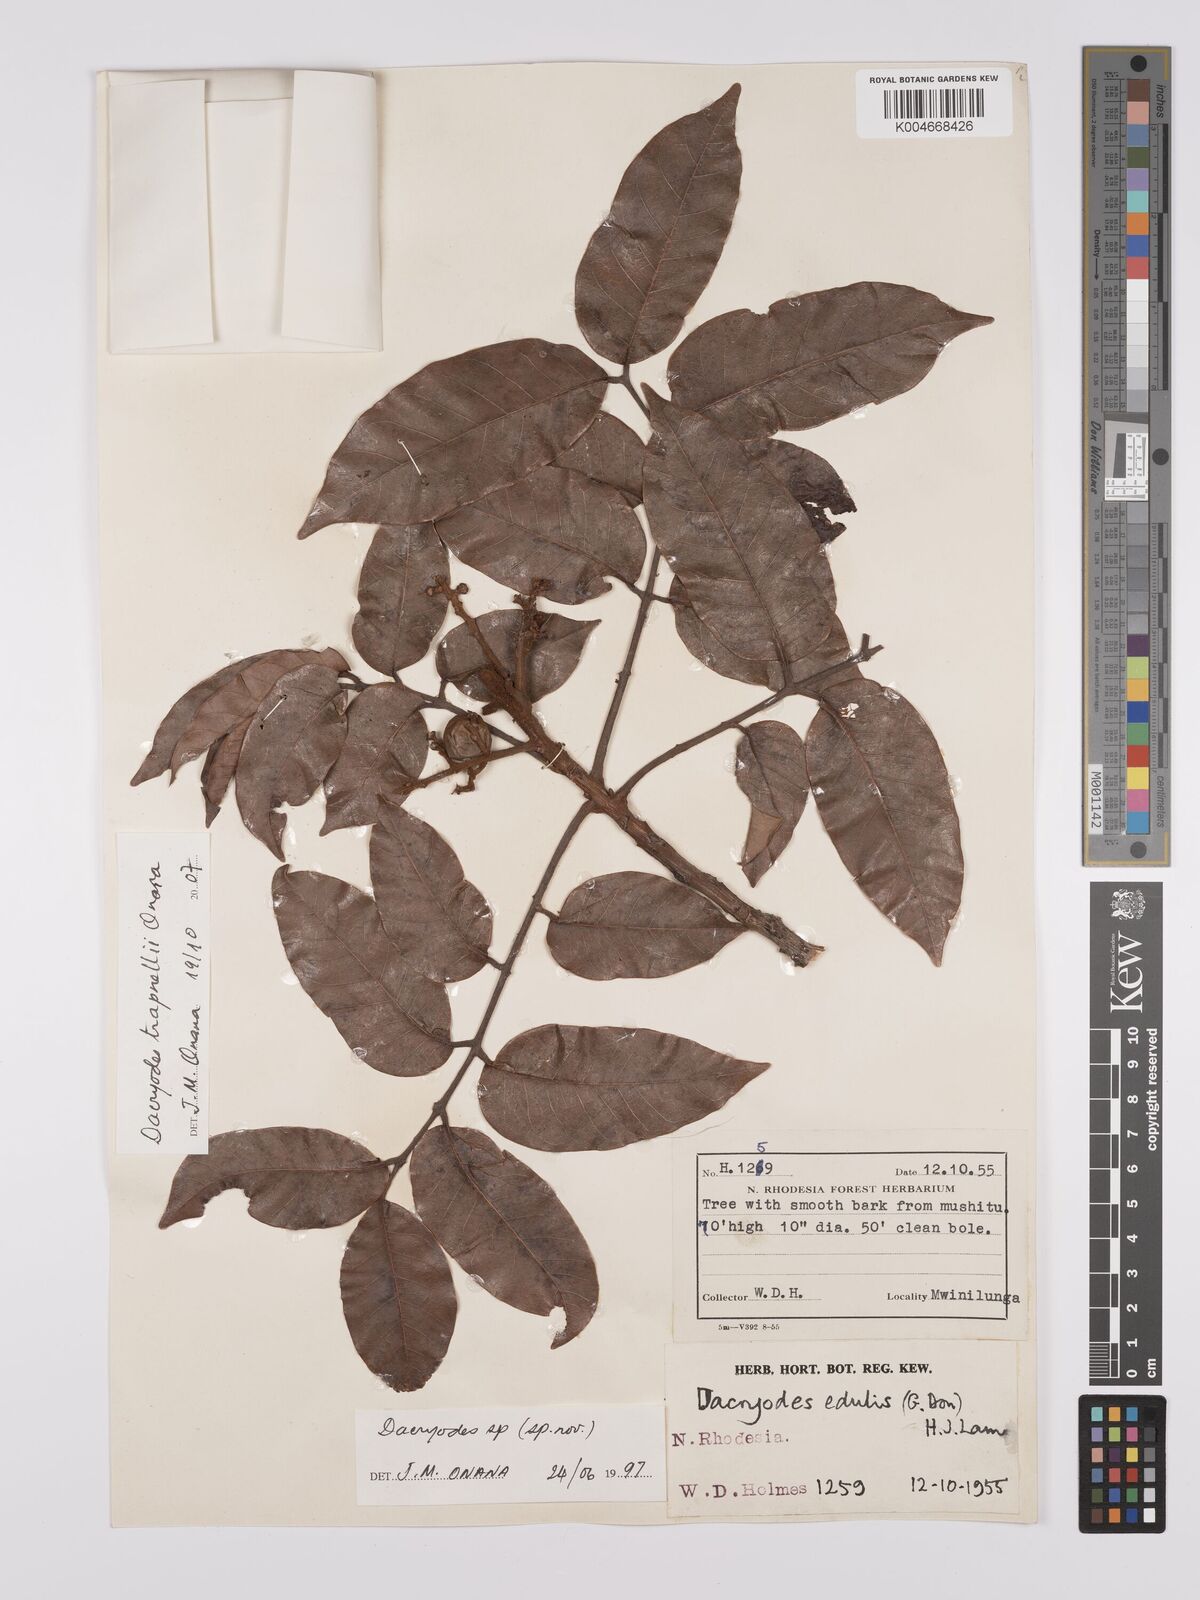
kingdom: Plantae
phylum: Tracheophyta
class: Magnoliopsida
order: Sapindales
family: Burseraceae
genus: Pachylobus
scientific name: Pachylobus trapnellii
